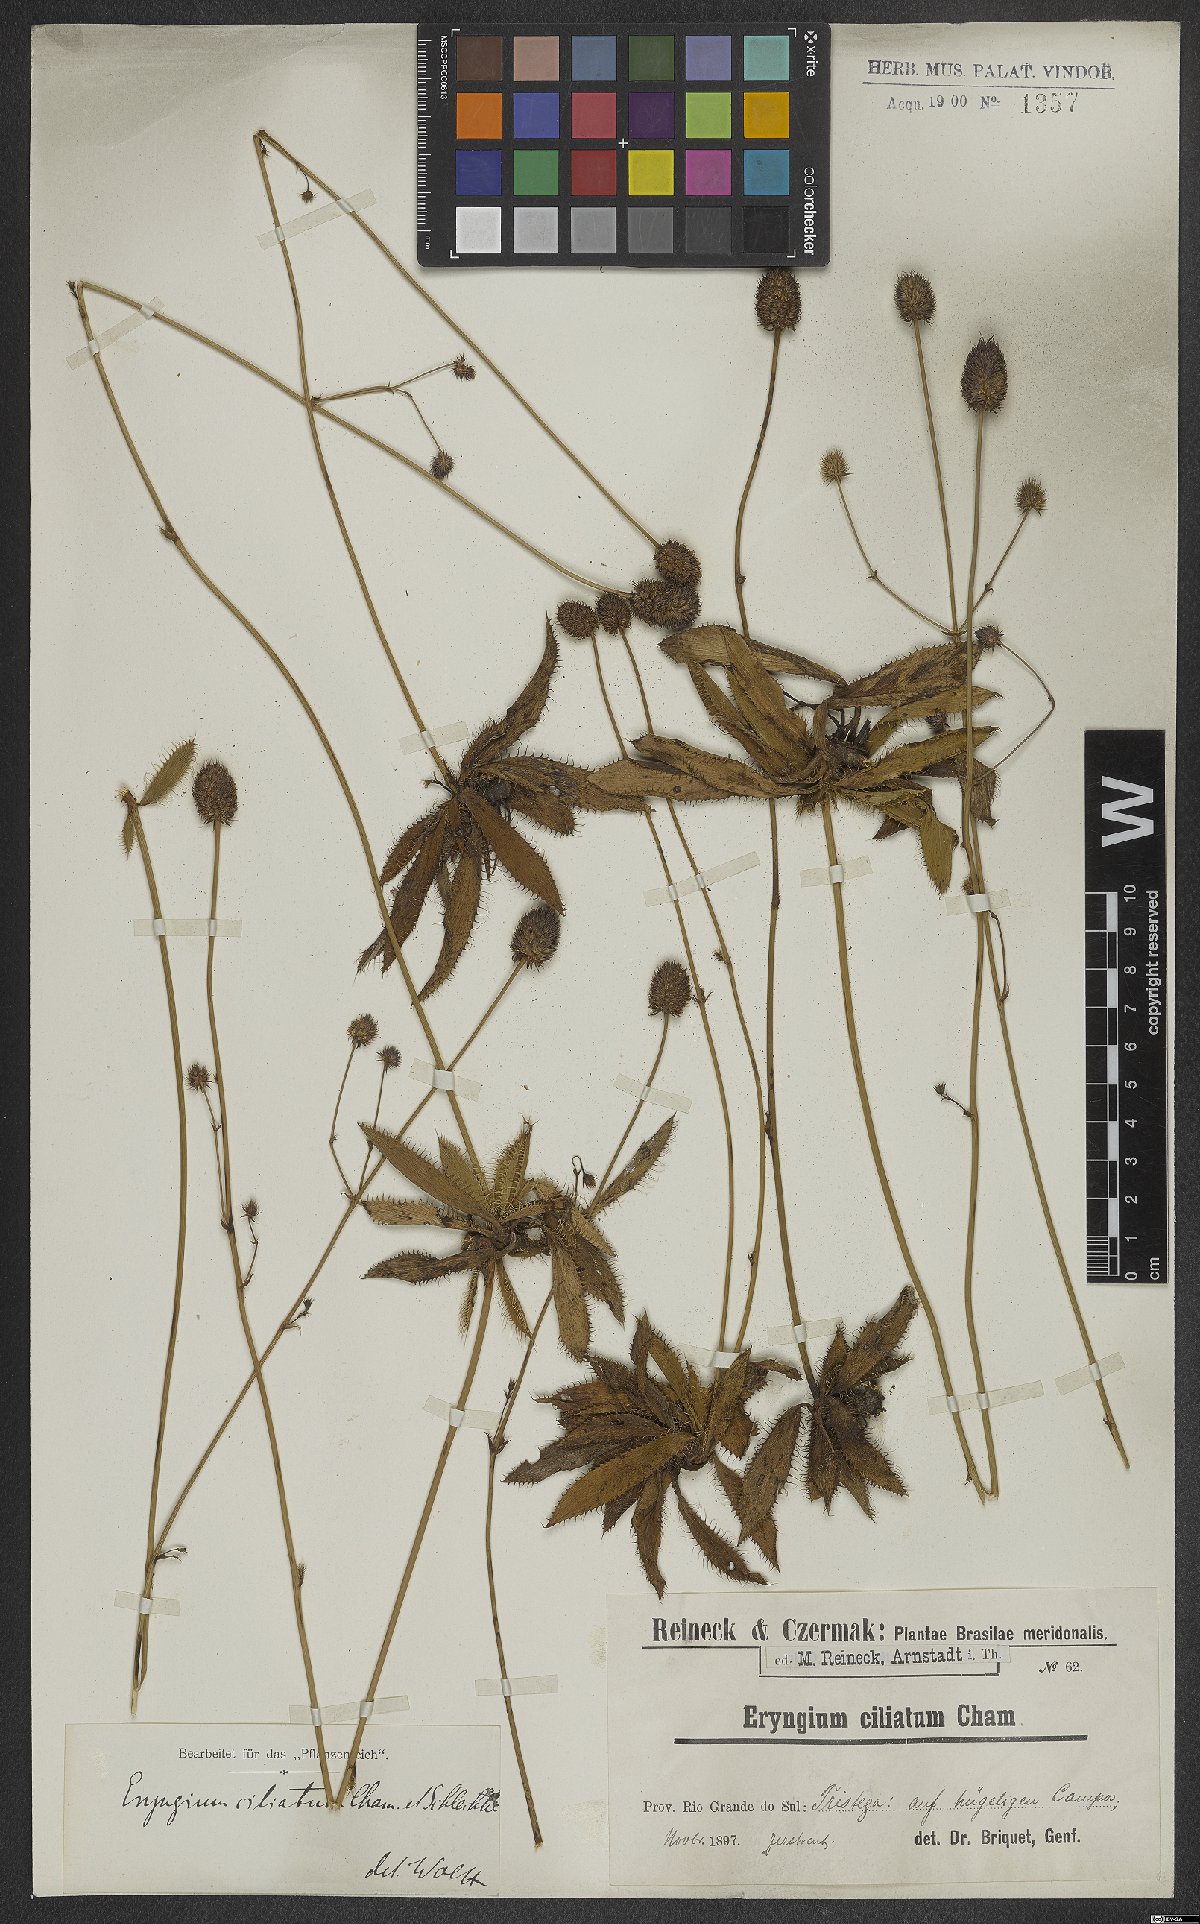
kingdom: Plantae
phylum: Tracheophyta
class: Magnoliopsida
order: Apiales
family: Apiaceae
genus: Eryngium
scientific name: Eryngium ciliatum
